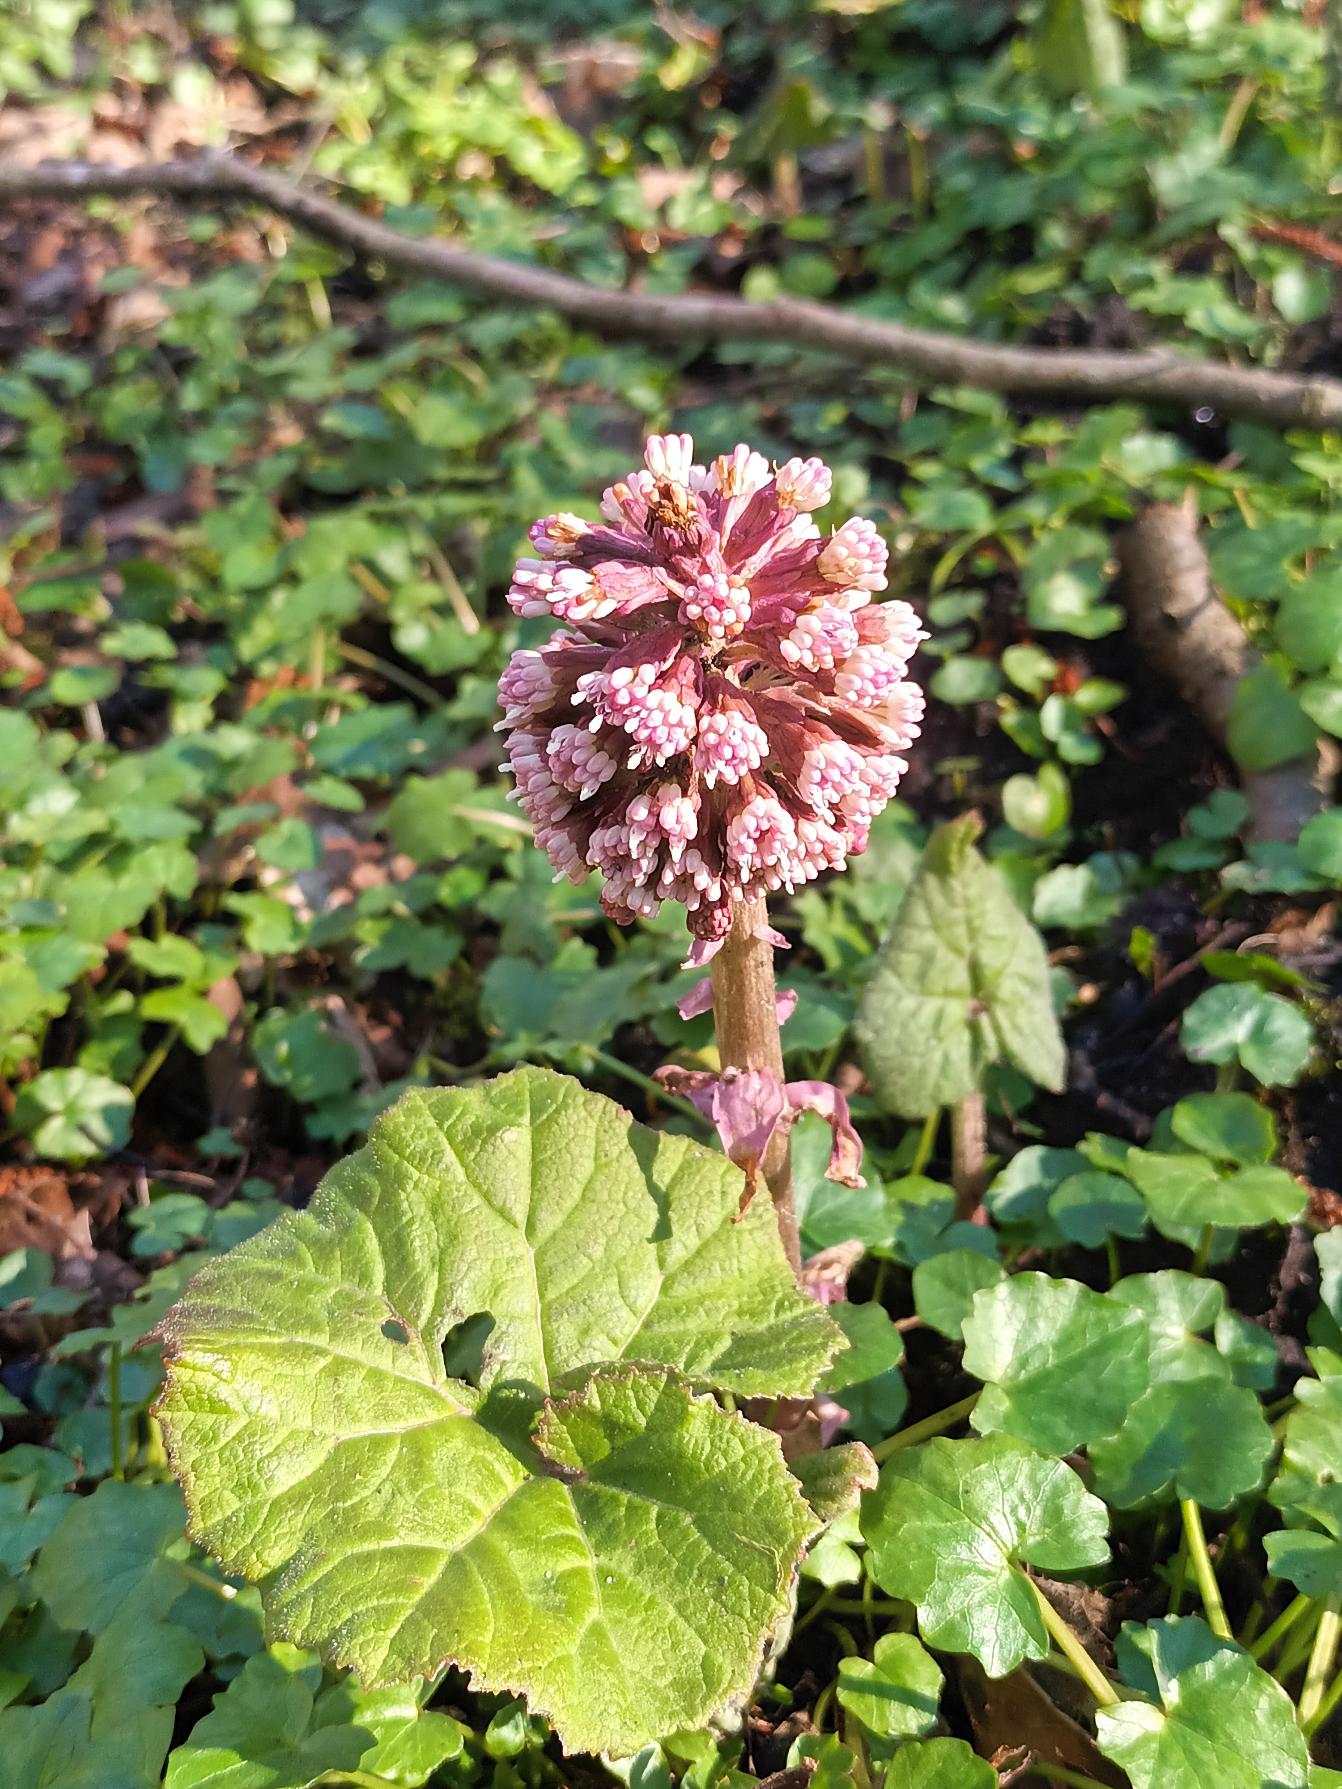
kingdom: Plantae
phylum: Tracheophyta
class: Magnoliopsida
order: Asterales
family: Asteraceae
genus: Petasites
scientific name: Petasites hybridus
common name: Rød hestehov
